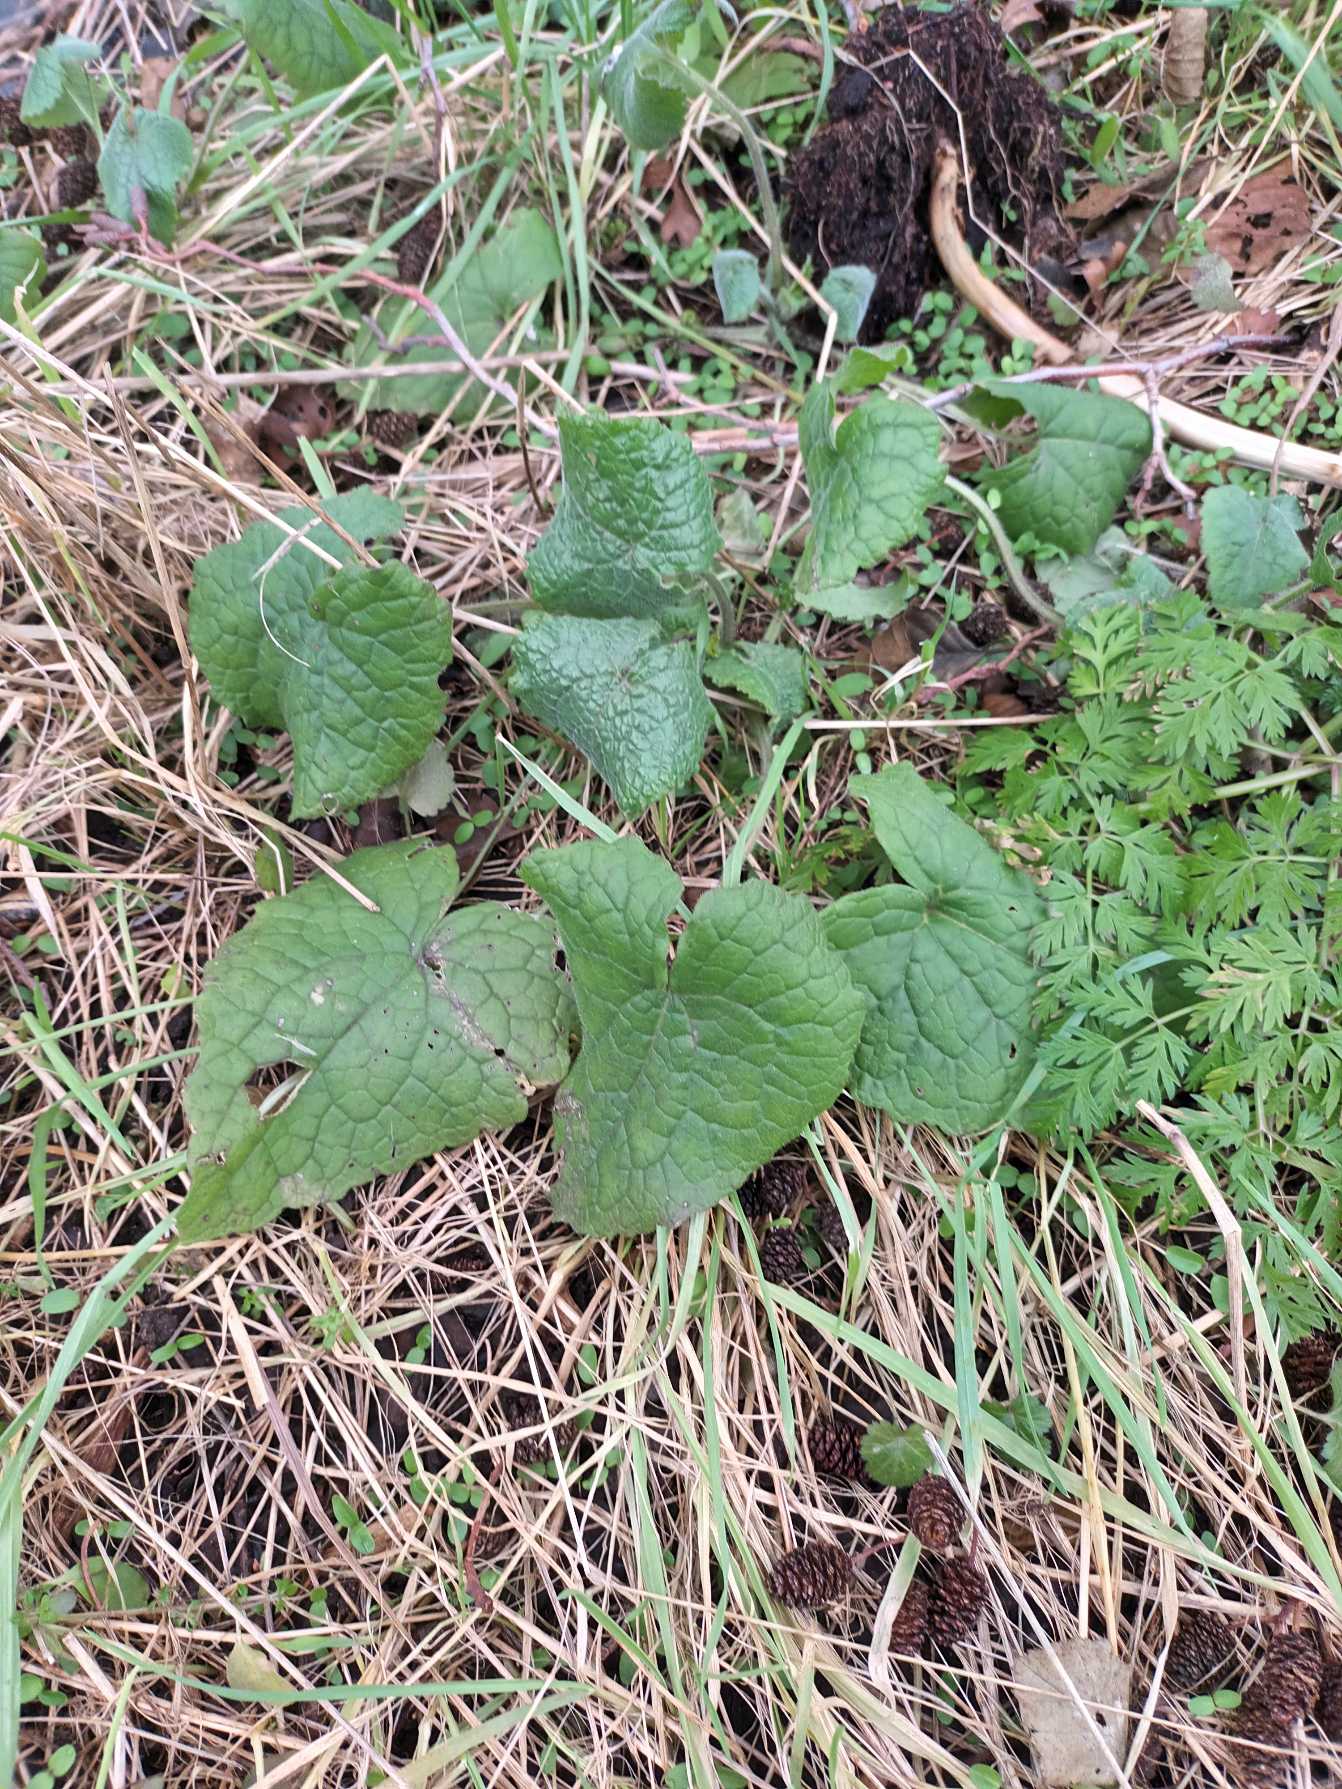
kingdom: Plantae
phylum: Tracheophyta
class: Magnoliopsida
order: Brassicales
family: Brassicaceae
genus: Lunaria
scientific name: Lunaria annua
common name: Judaspenge
